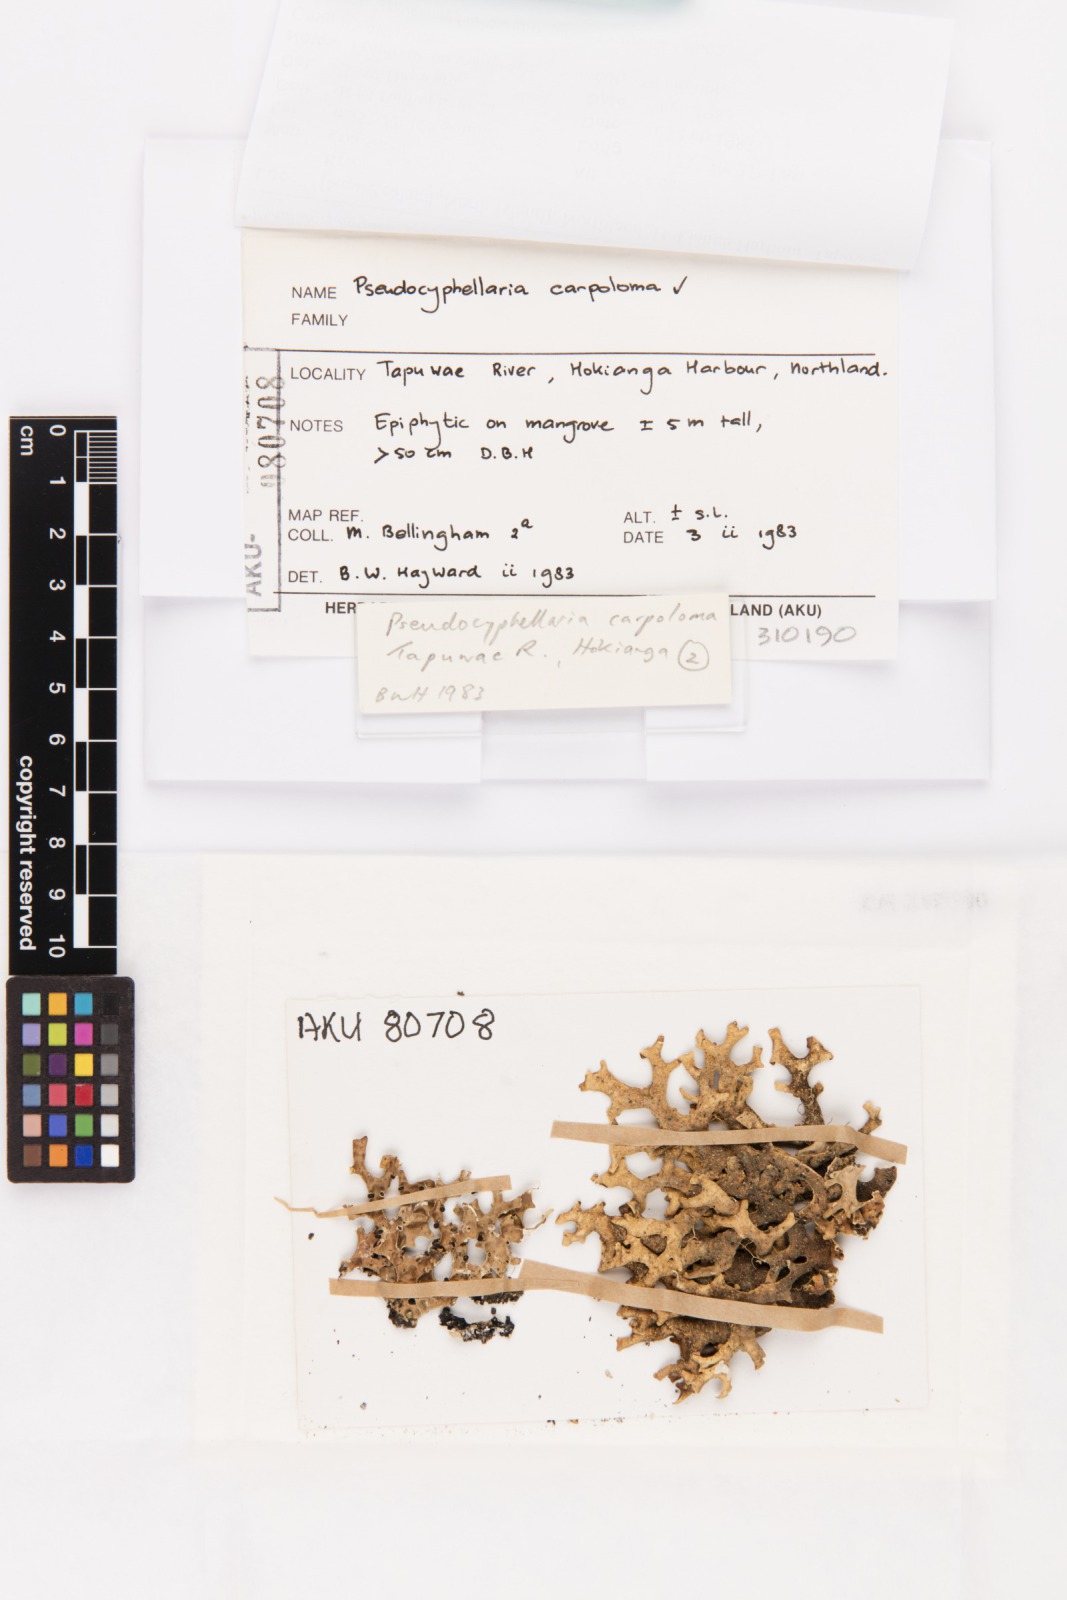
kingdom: Fungi
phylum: Ascomycota
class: Lecanoromycetes
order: Peltigerales
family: Lobariaceae
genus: Pseudocyphellaria
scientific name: Pseudocyphellaria carpoloma
